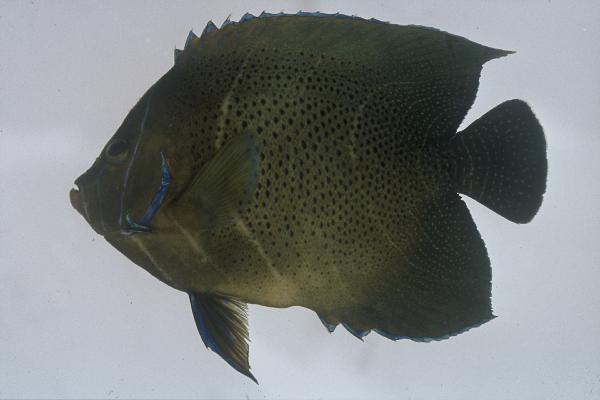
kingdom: Animalia
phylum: Chordata
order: Perciformes
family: Pomacanthidae
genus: Pomacanthus
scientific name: Pomacanthus semicirculatus
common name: Semicircle angelfish
